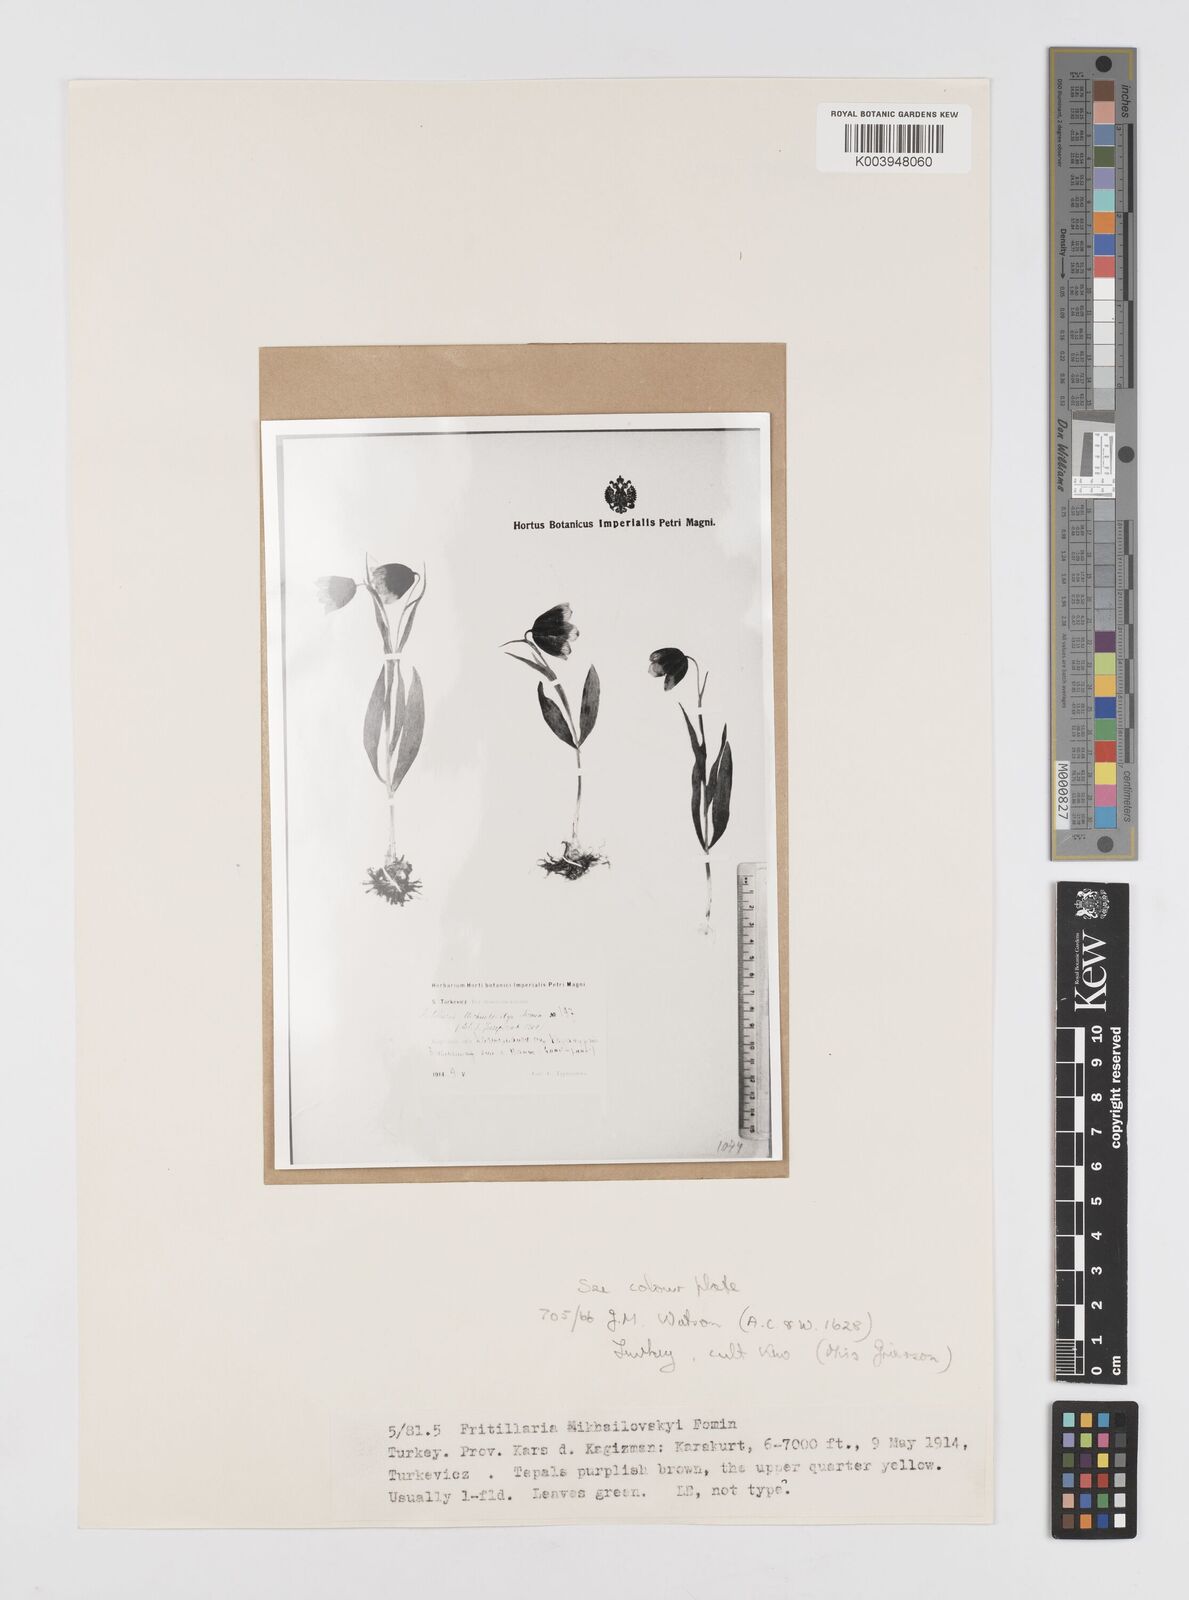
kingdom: Plantae
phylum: Tracheophyta
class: Liliopsida
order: Liliales
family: Liliaceae
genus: Fritillaria
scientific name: Fritillaria michailovskyi
